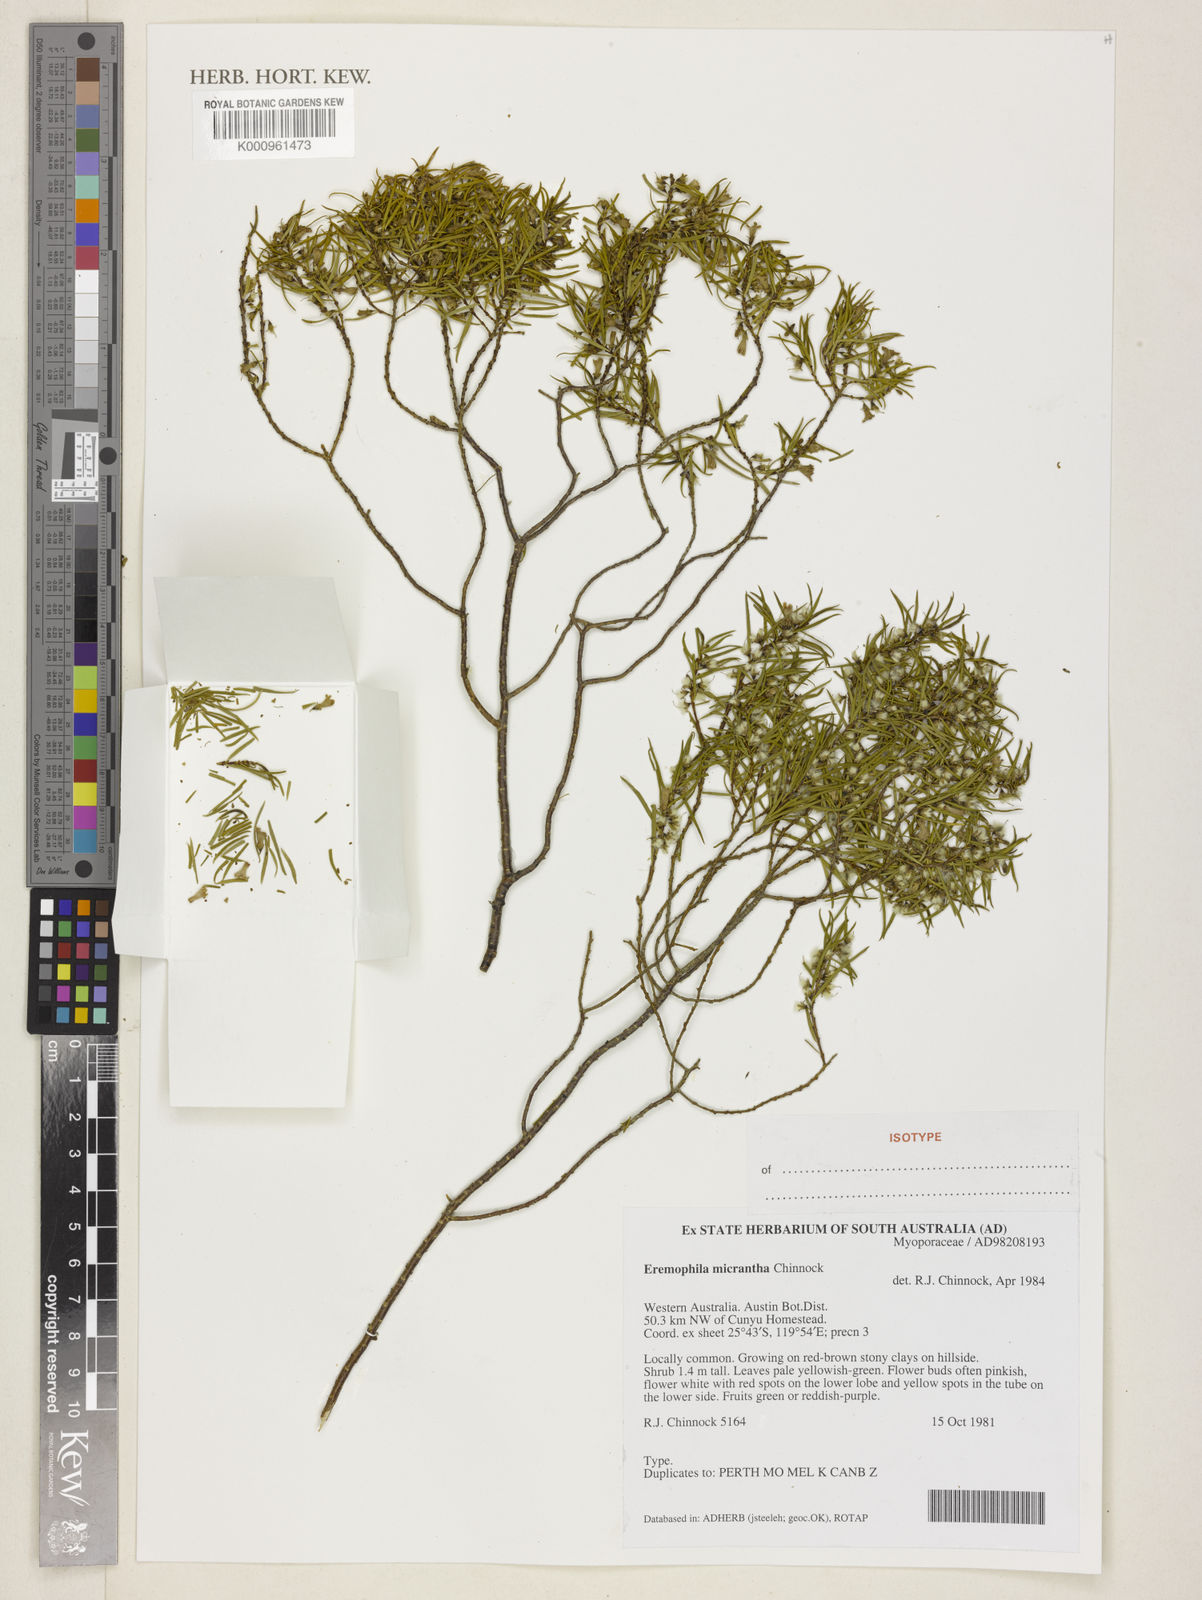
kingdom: Plantae
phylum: Tracheophyta
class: Magnoliopsida
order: Lamiales
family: Scrophulariaceae
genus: Eremophila
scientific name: Eremophila micrantha
